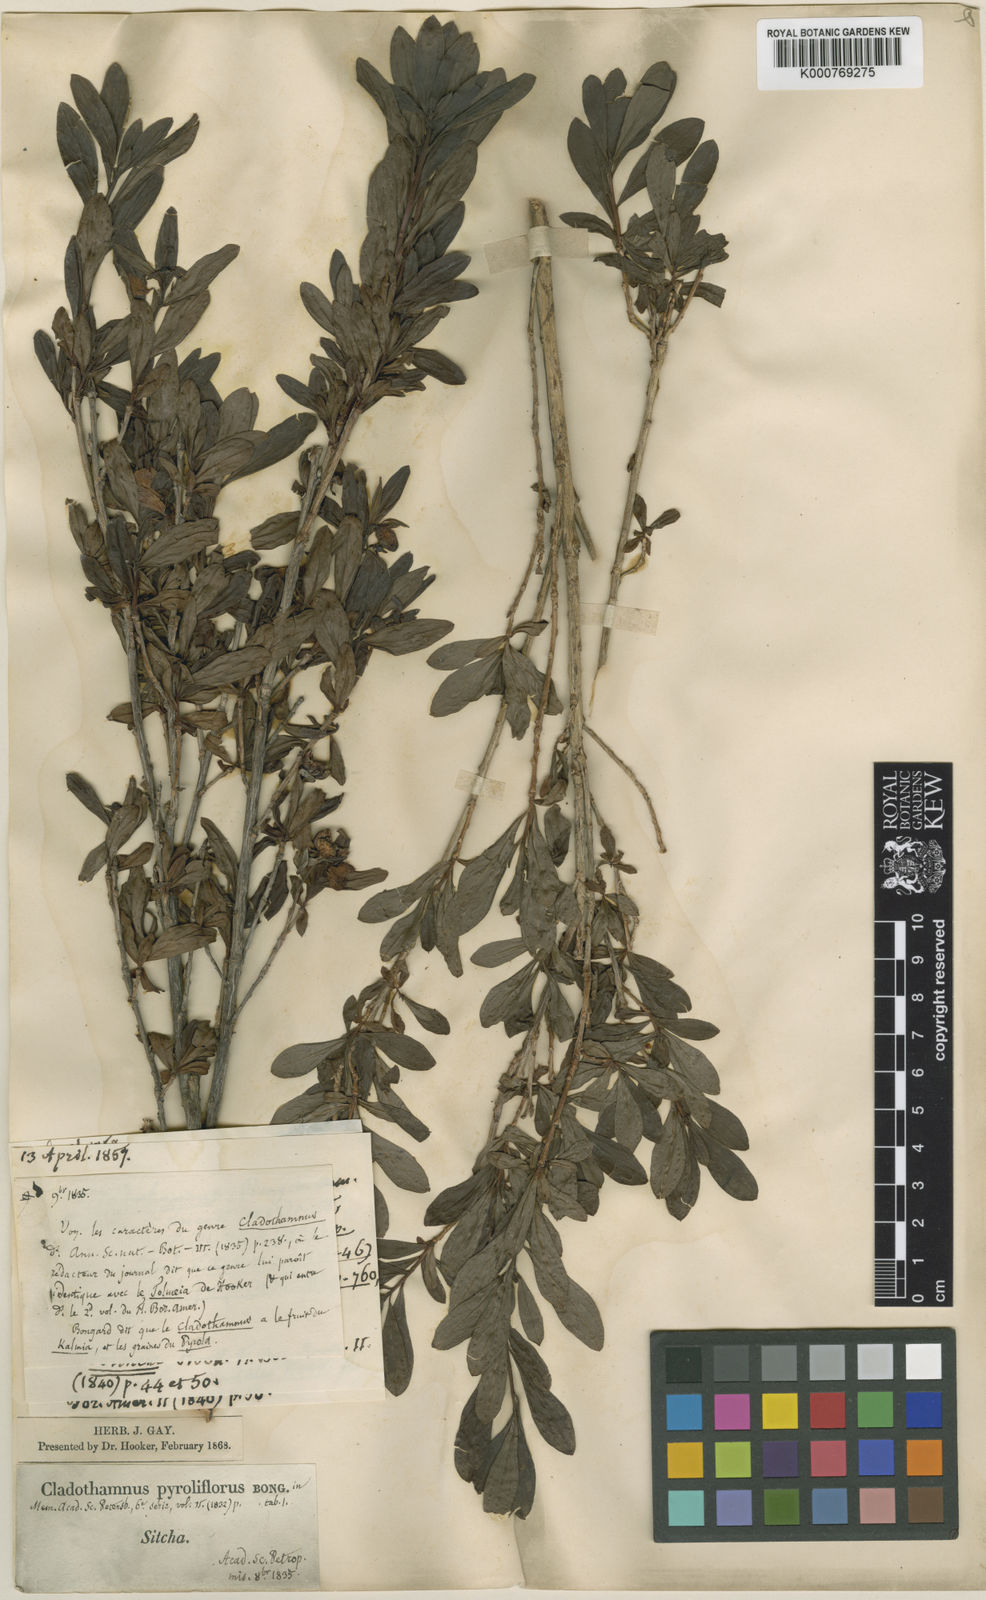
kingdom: Plantae
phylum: Tracheophyta
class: Magnoliopsida
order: Ericales
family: Ericaceae
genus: Elliottia
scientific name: Elliottia pyroliflora
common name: Copperbush
